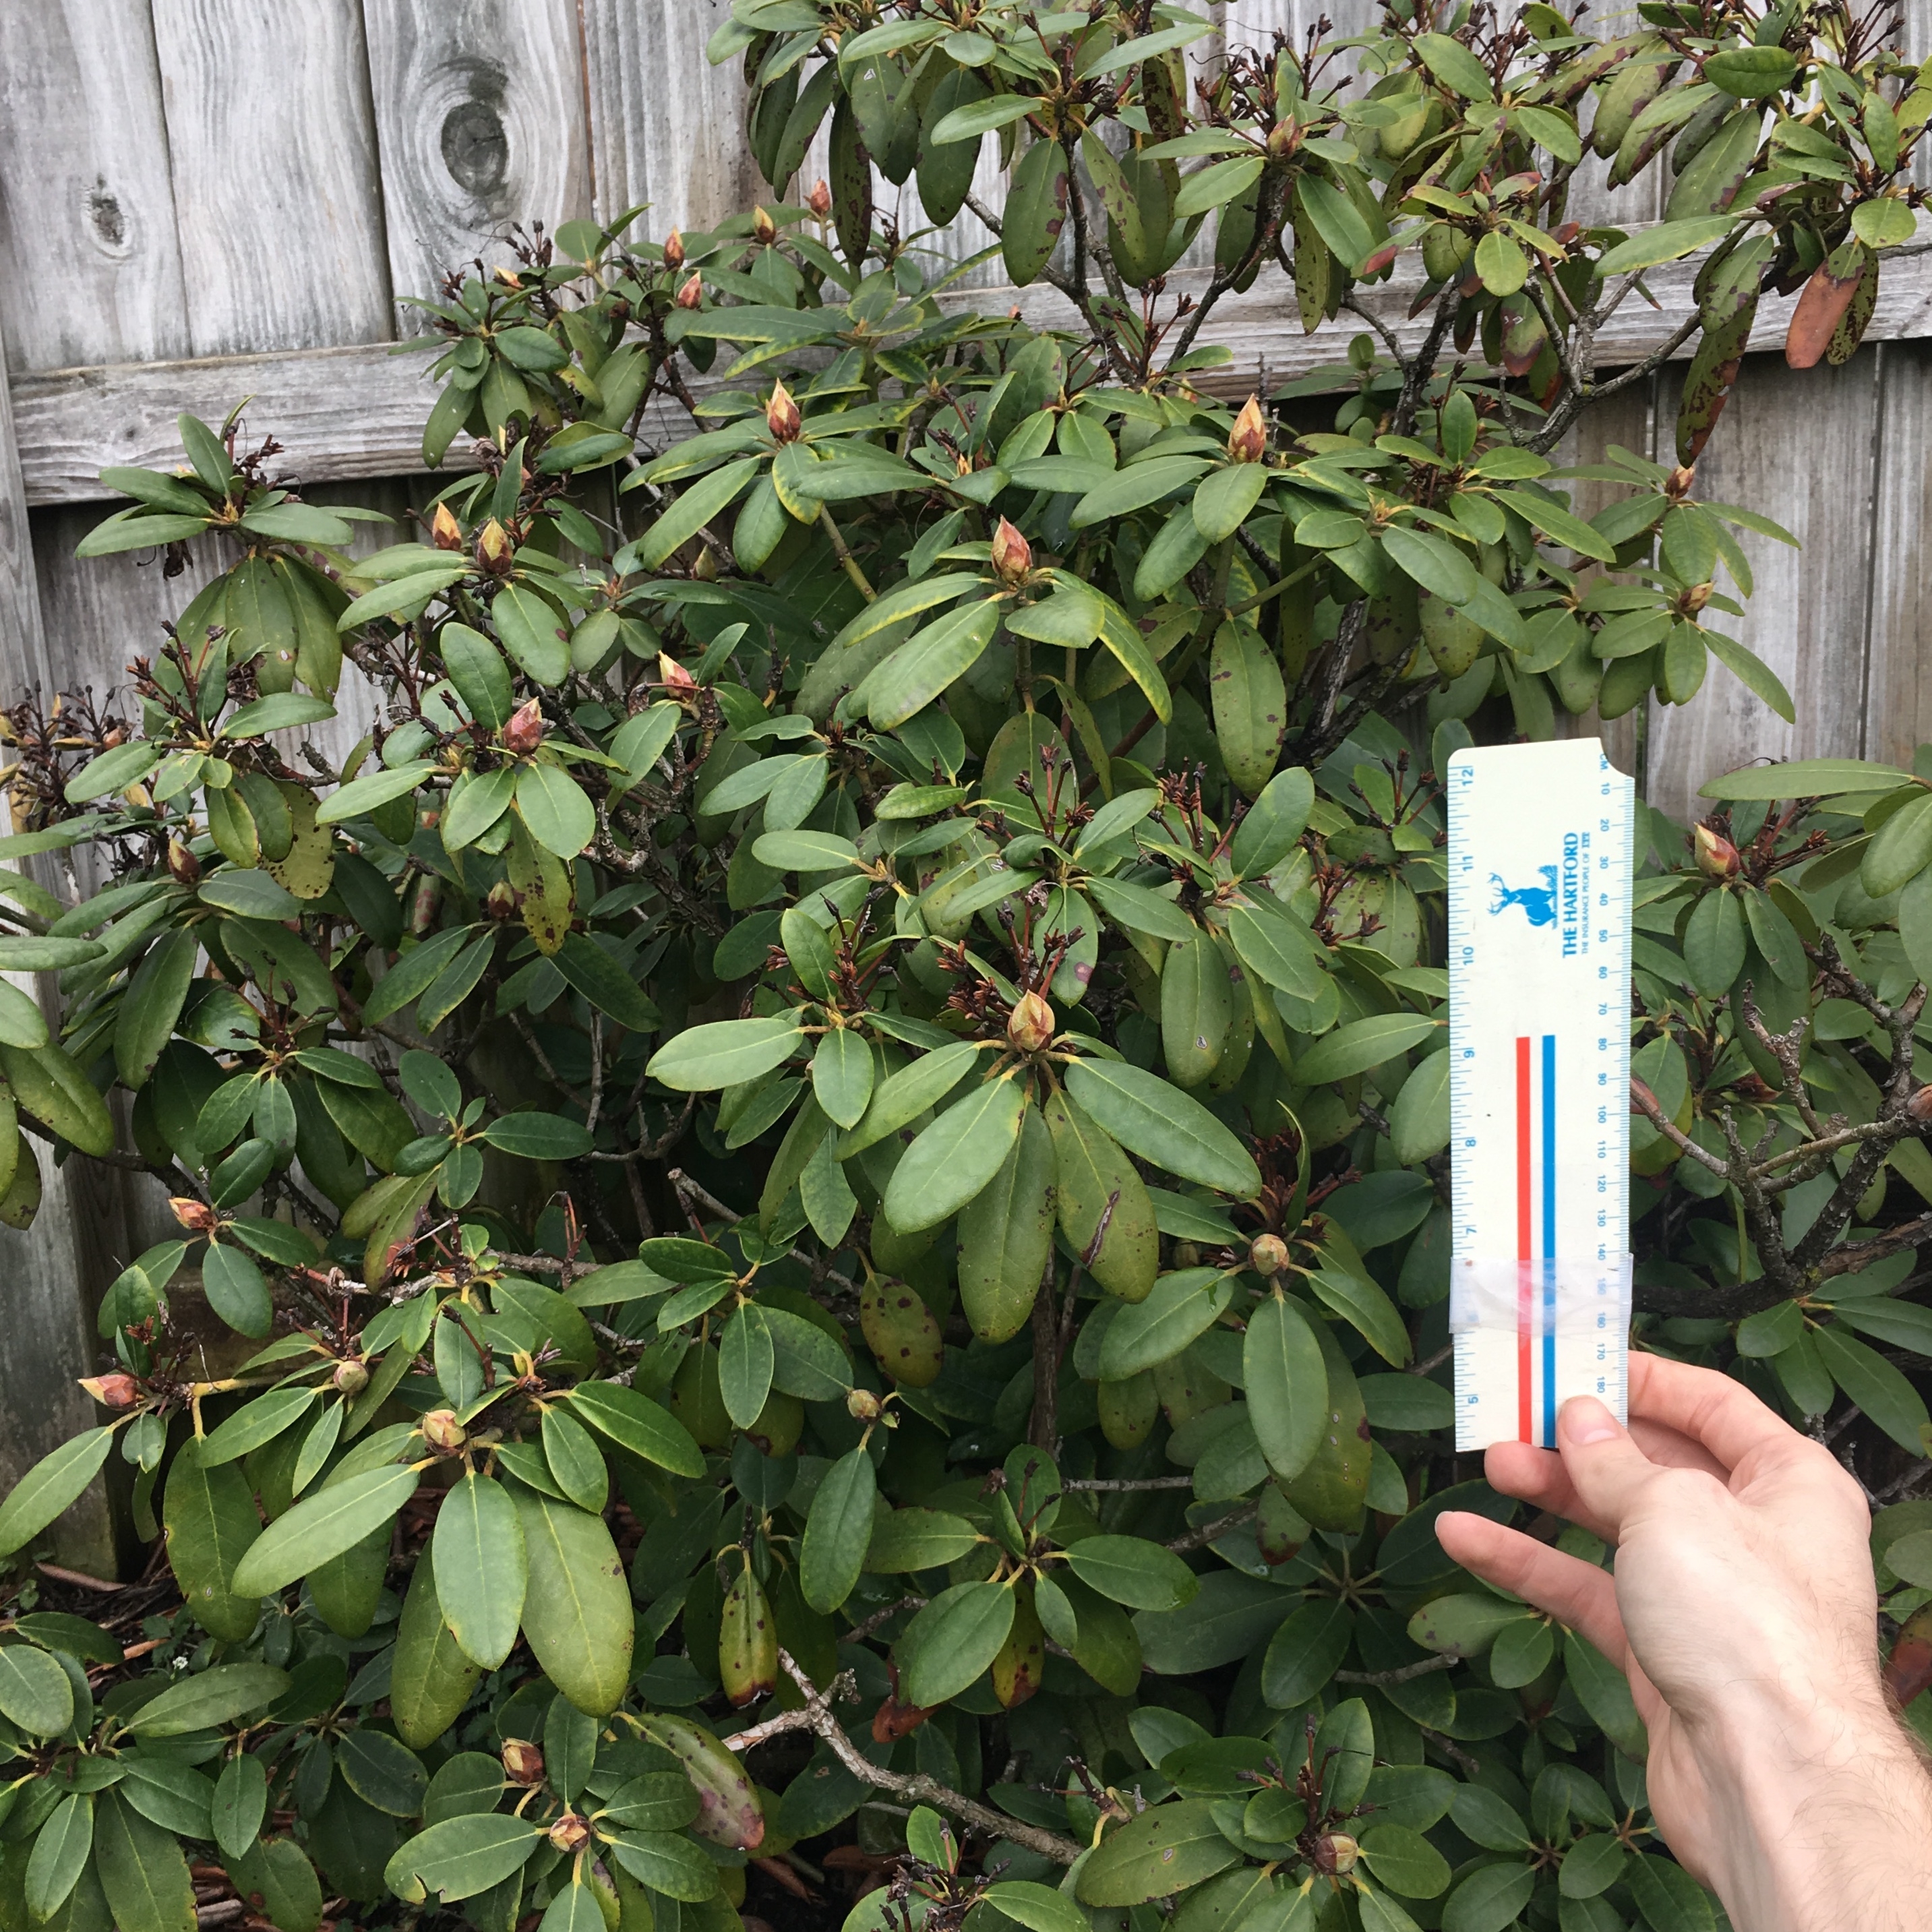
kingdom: Plantae
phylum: Tracheophyta
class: Magnoliopsida
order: Ericales
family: Ericaceae
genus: Rhododendron
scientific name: Rhododendron catawbiense
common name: Rhododendron
